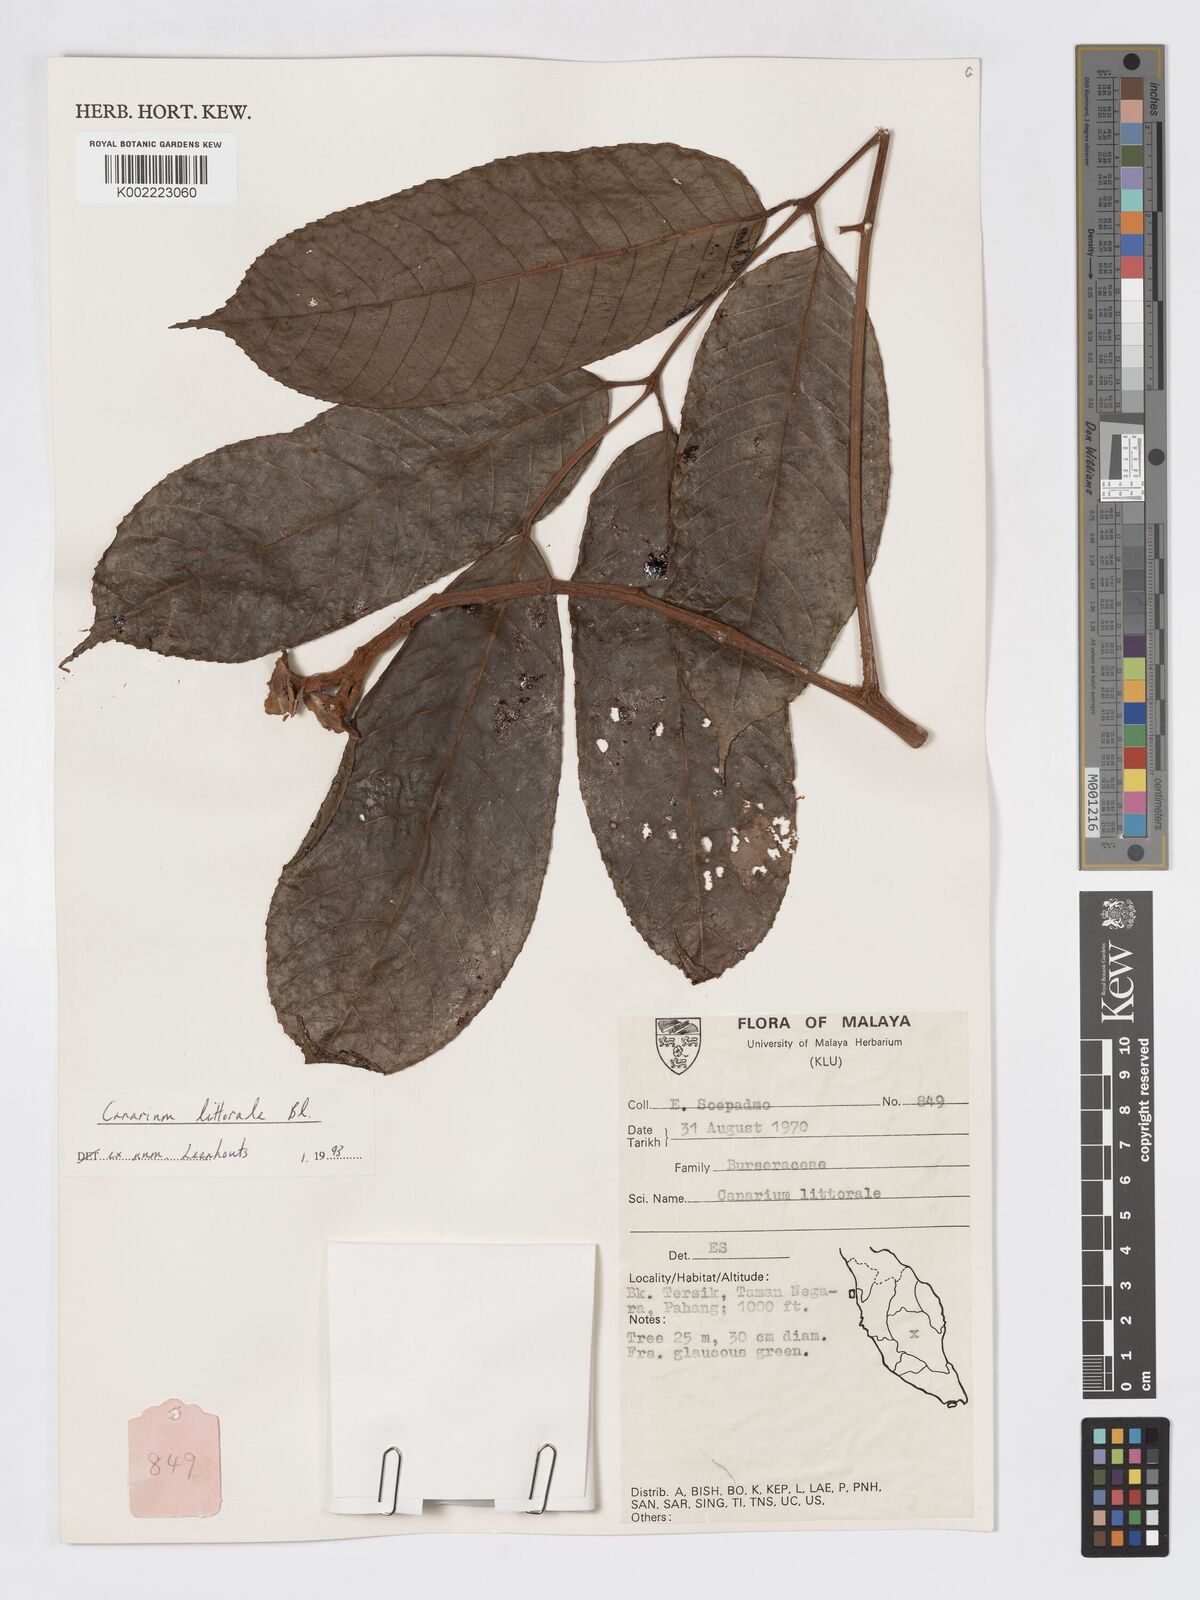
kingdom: Plantae
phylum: Tracheophyta
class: Magnoliopsida
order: Sapindales
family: Burseraceae
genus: Canarium
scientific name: Canarium littorale
